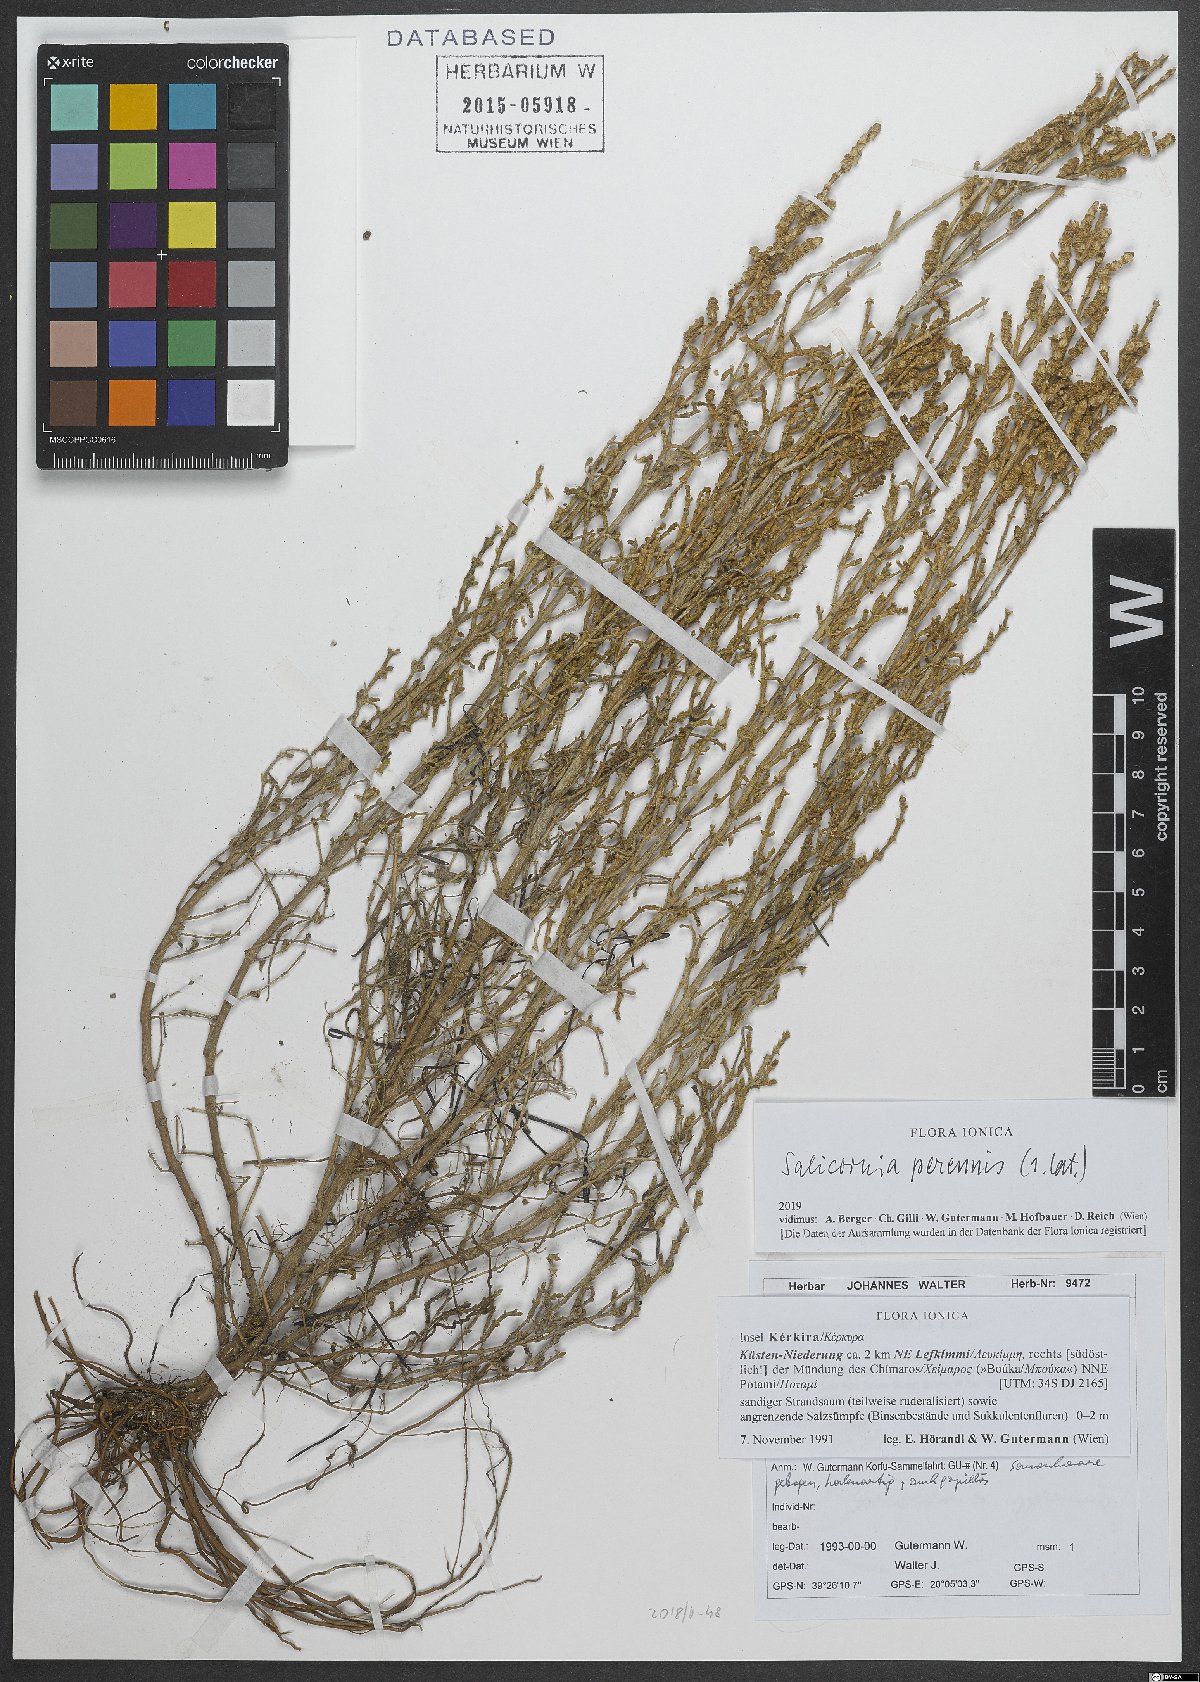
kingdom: Plantae
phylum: Tracheophyta
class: Magnoliopsida
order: Caryophyllales
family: Amaranthaceae
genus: Salicornia
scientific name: Salicornia perennis
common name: Chicken claws
